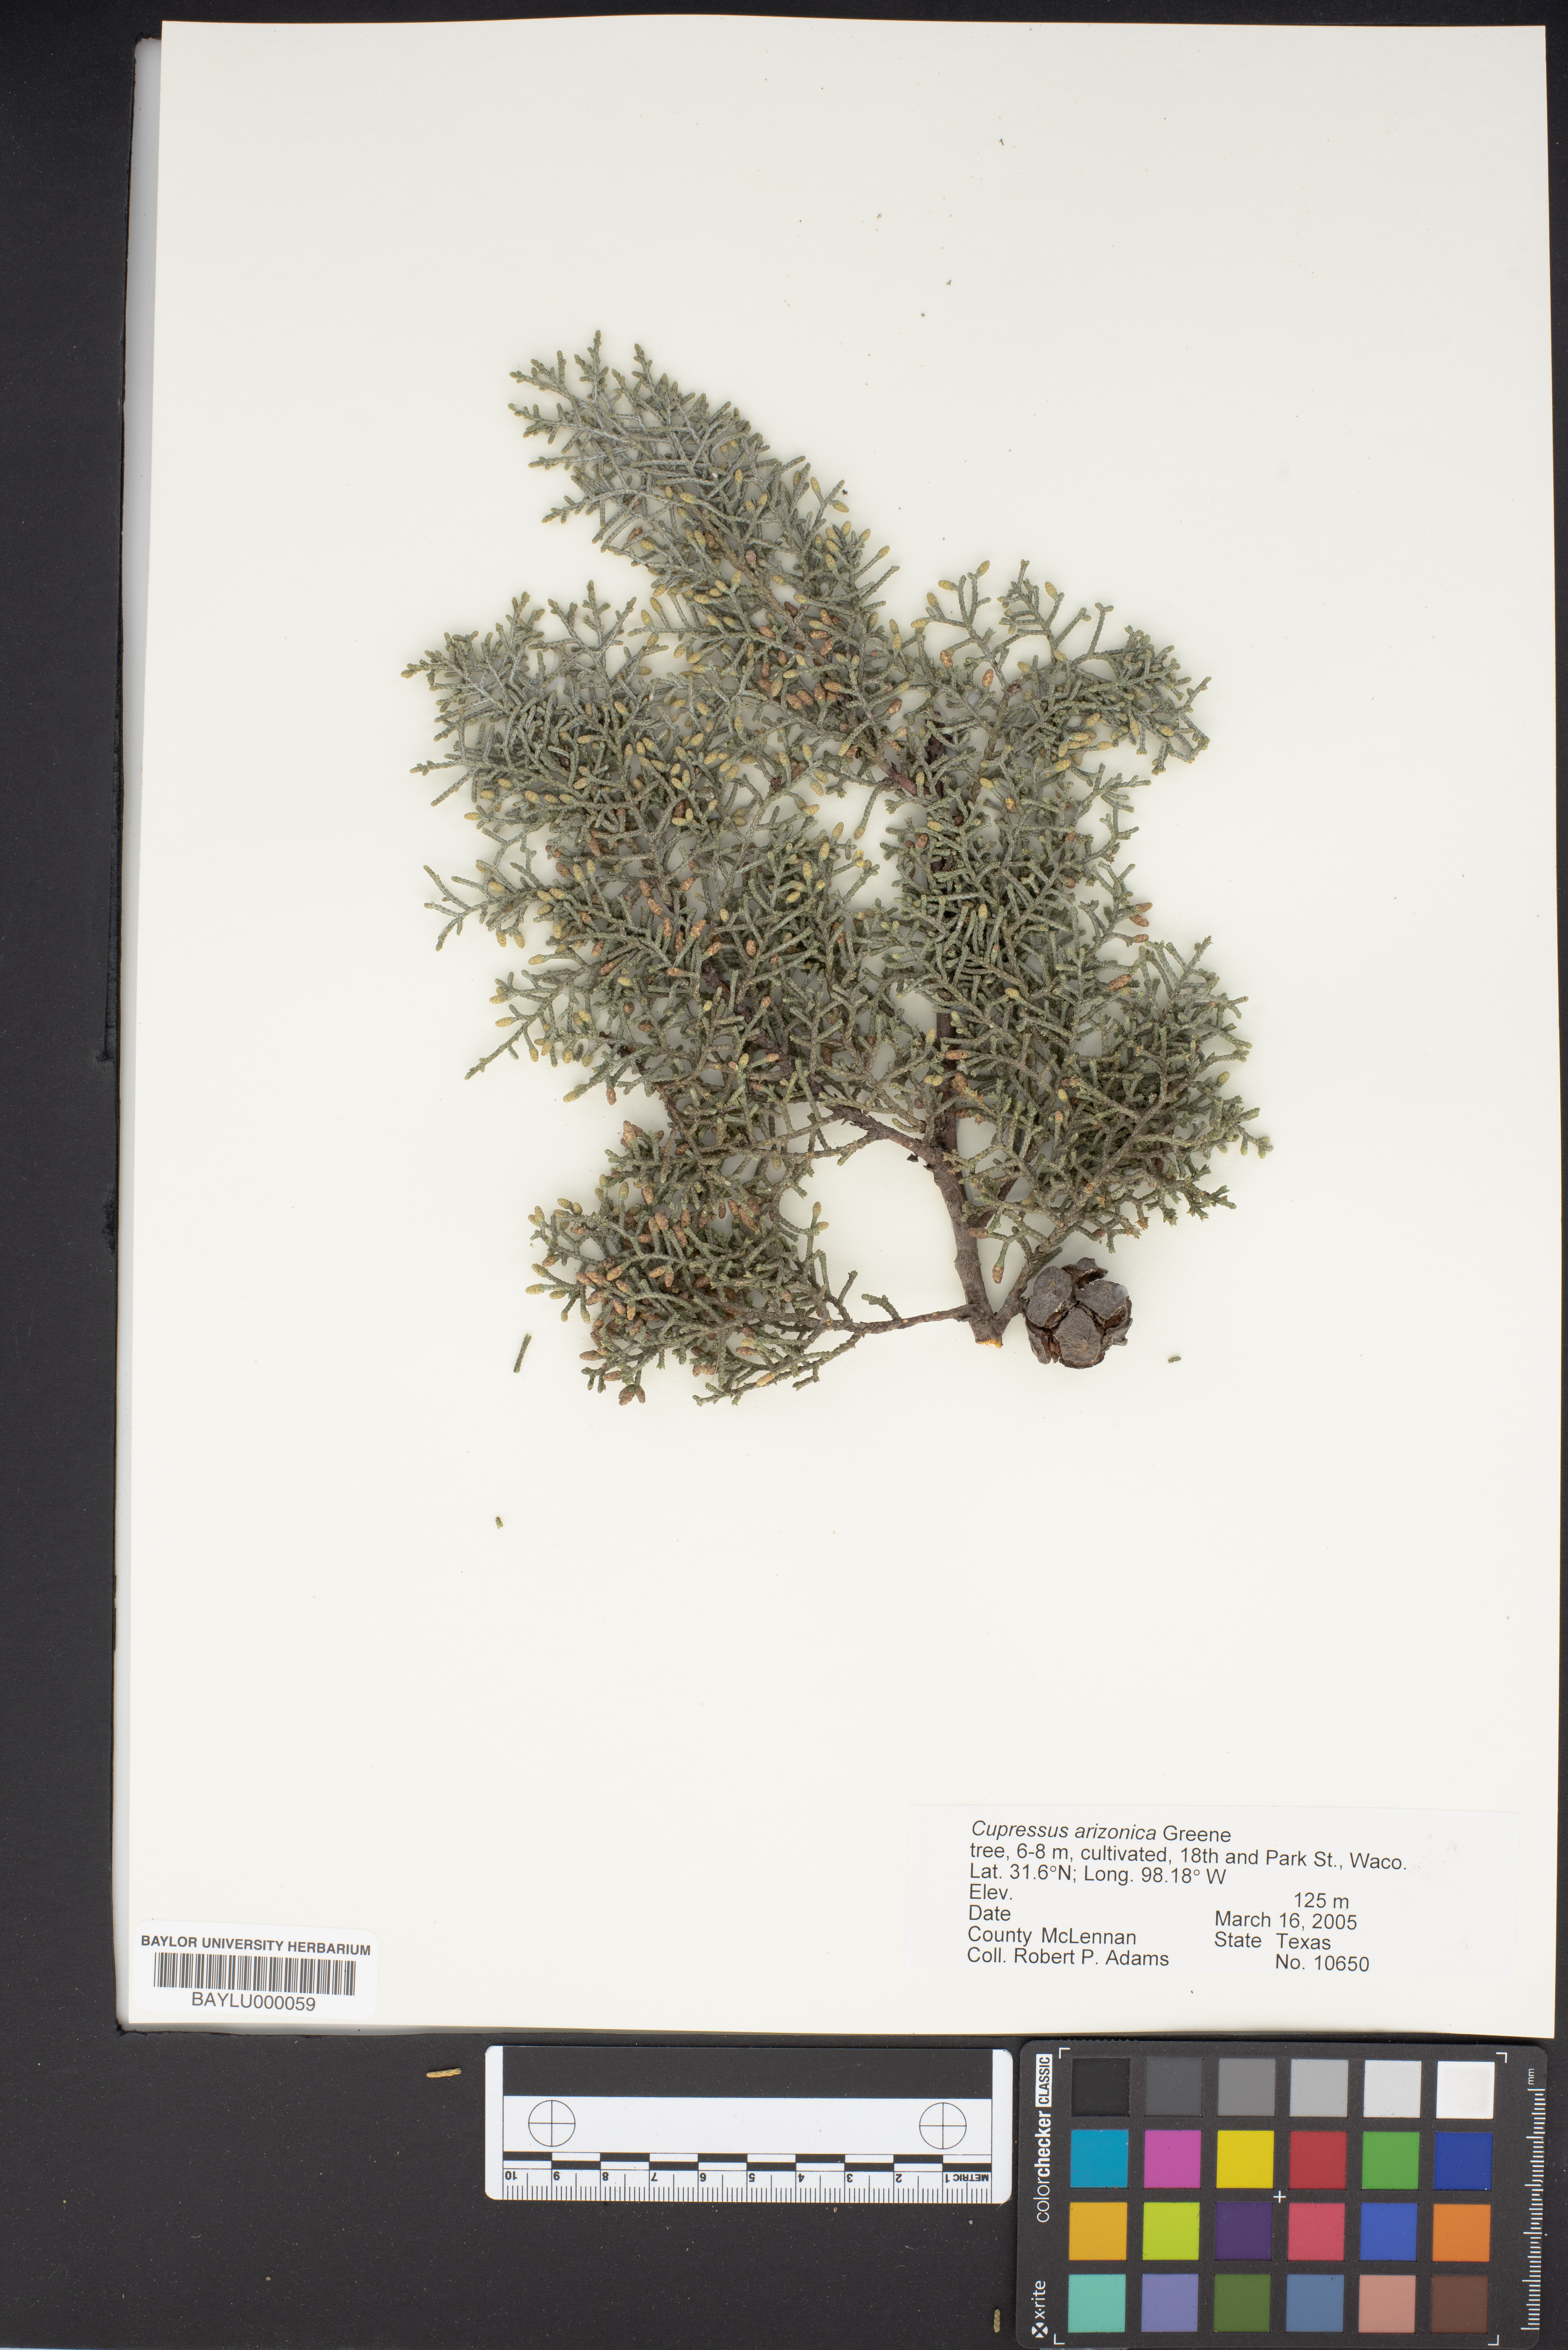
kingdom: Plantae
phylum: Tracheophyta
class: Pinopsida
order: Pinales
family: Cupressaceae
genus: Cupressus
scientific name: Cupressus arizonica
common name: Arizona cypress
